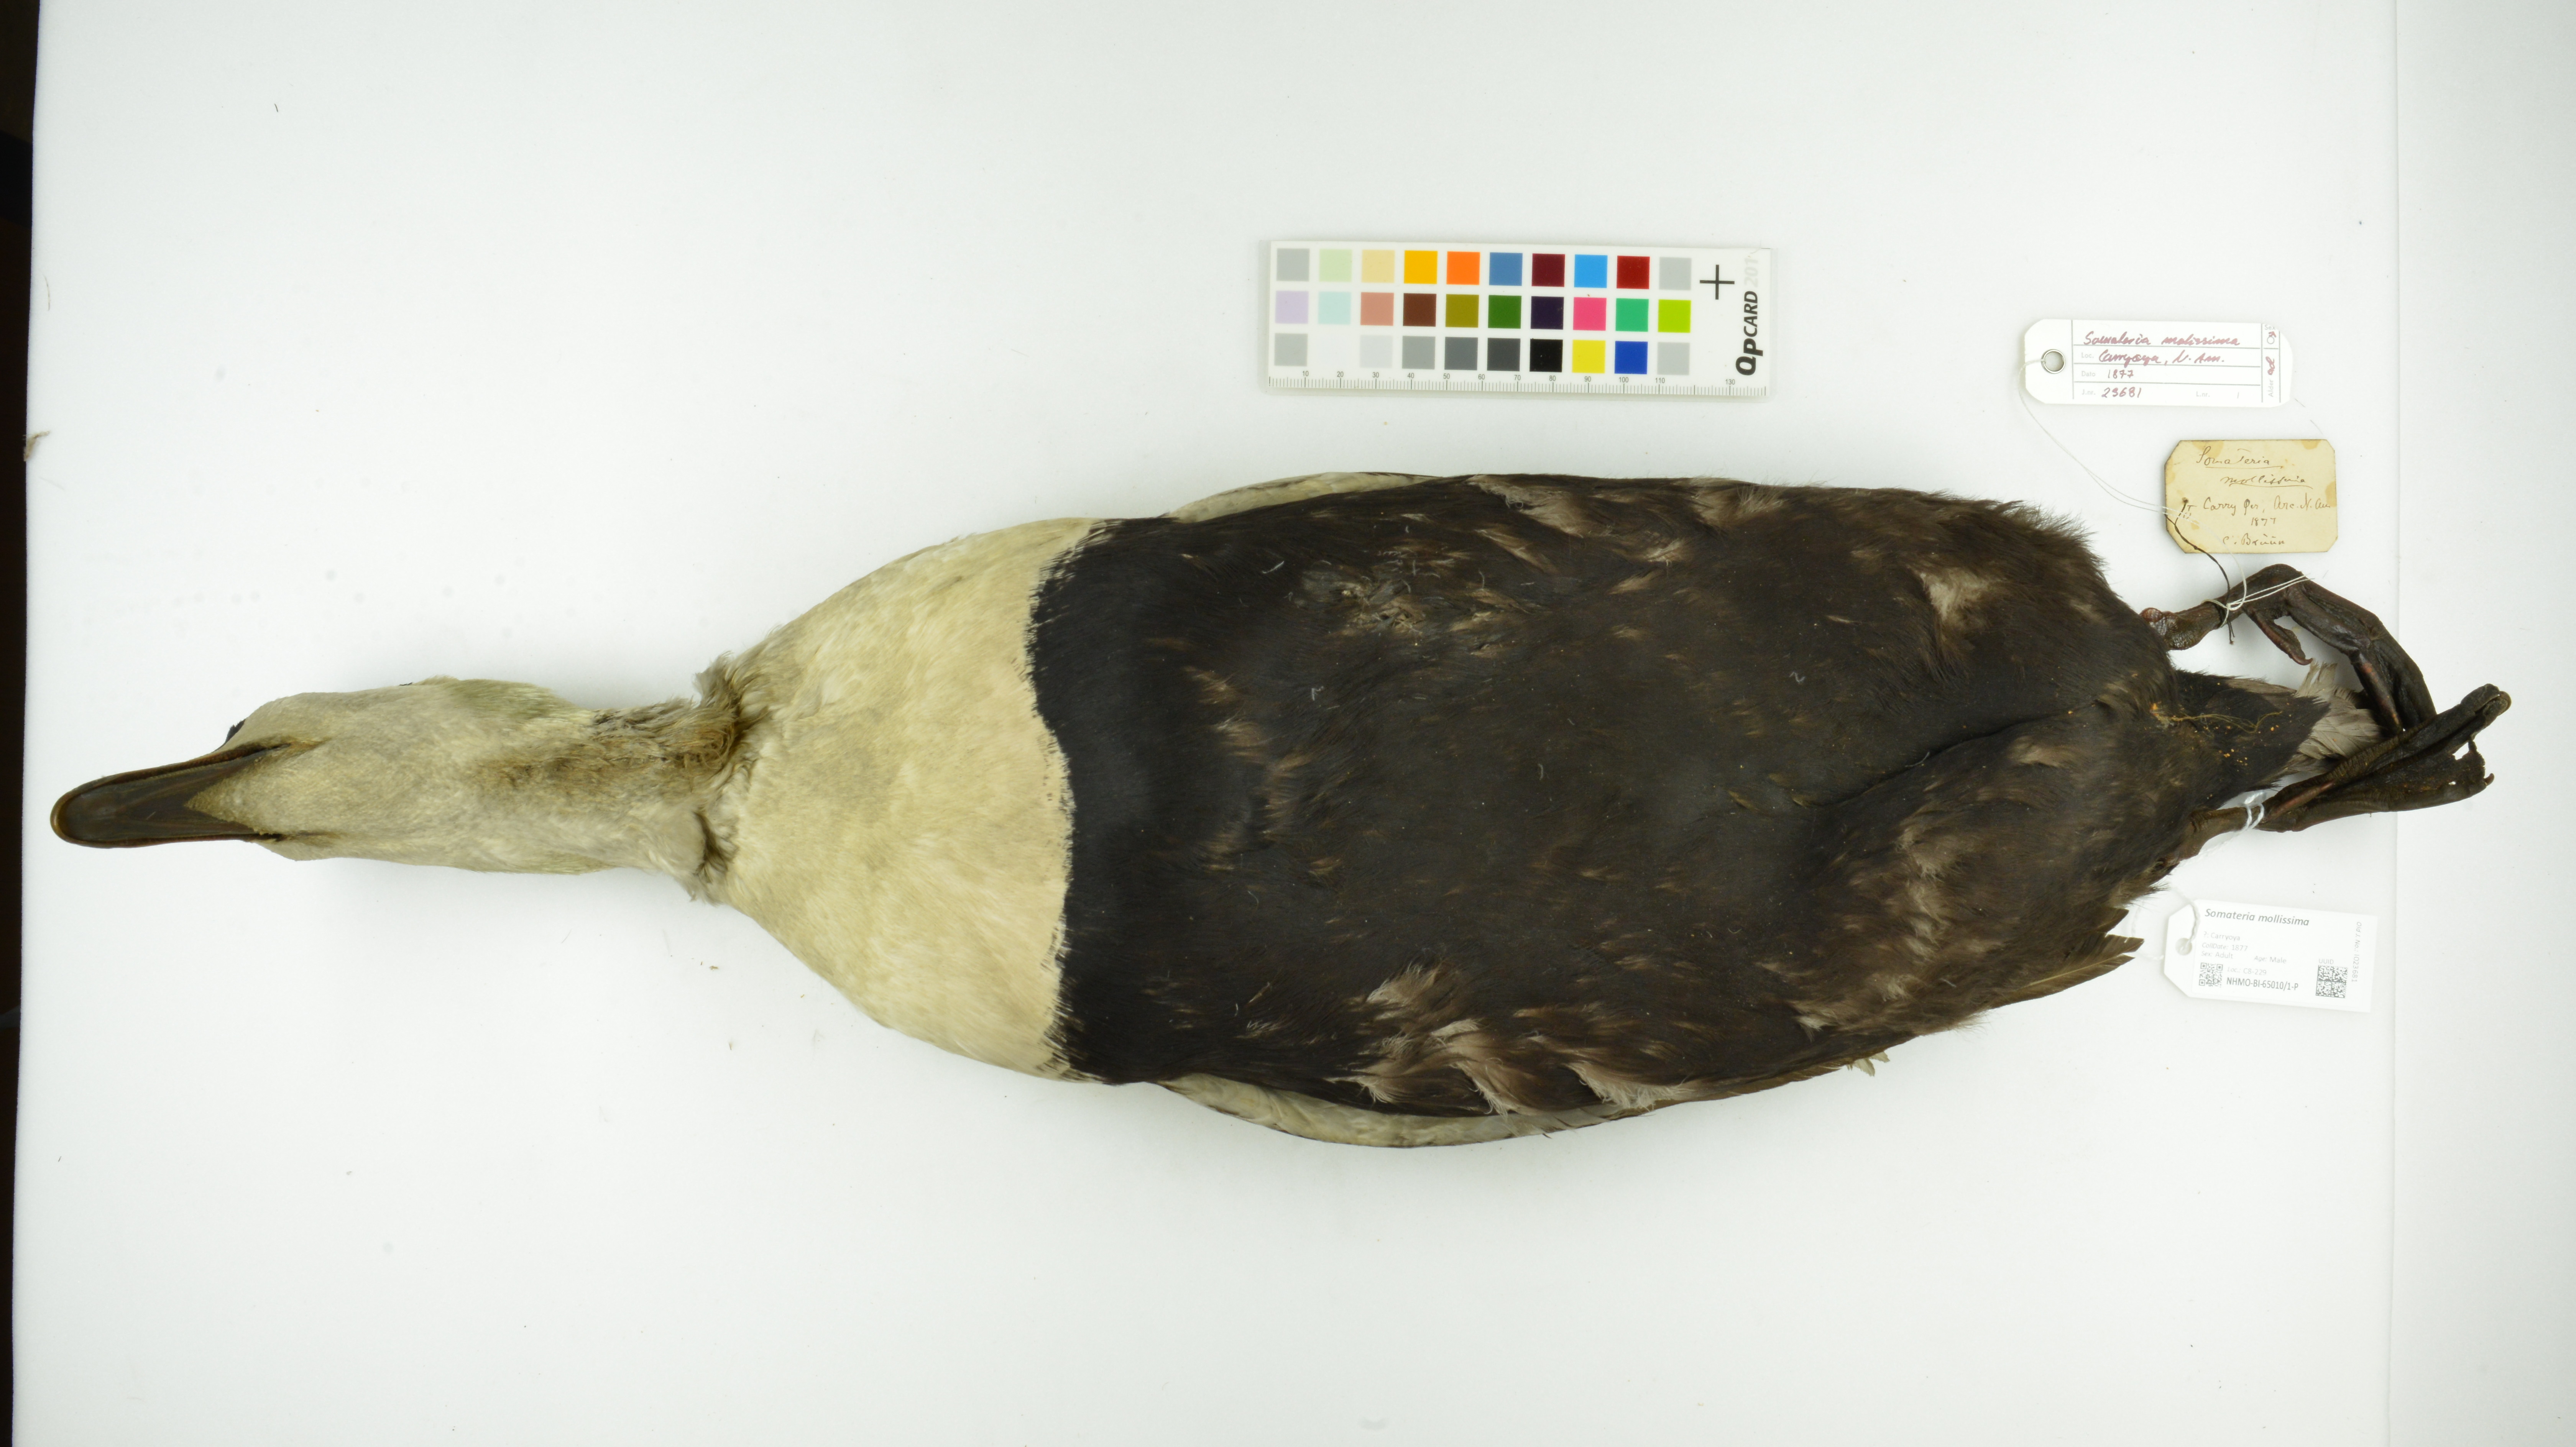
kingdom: Animalia
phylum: Chordata
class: Aves
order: Anseriformes
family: Anatidae
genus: Somateria
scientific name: Somateria mollissima
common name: Common eider
